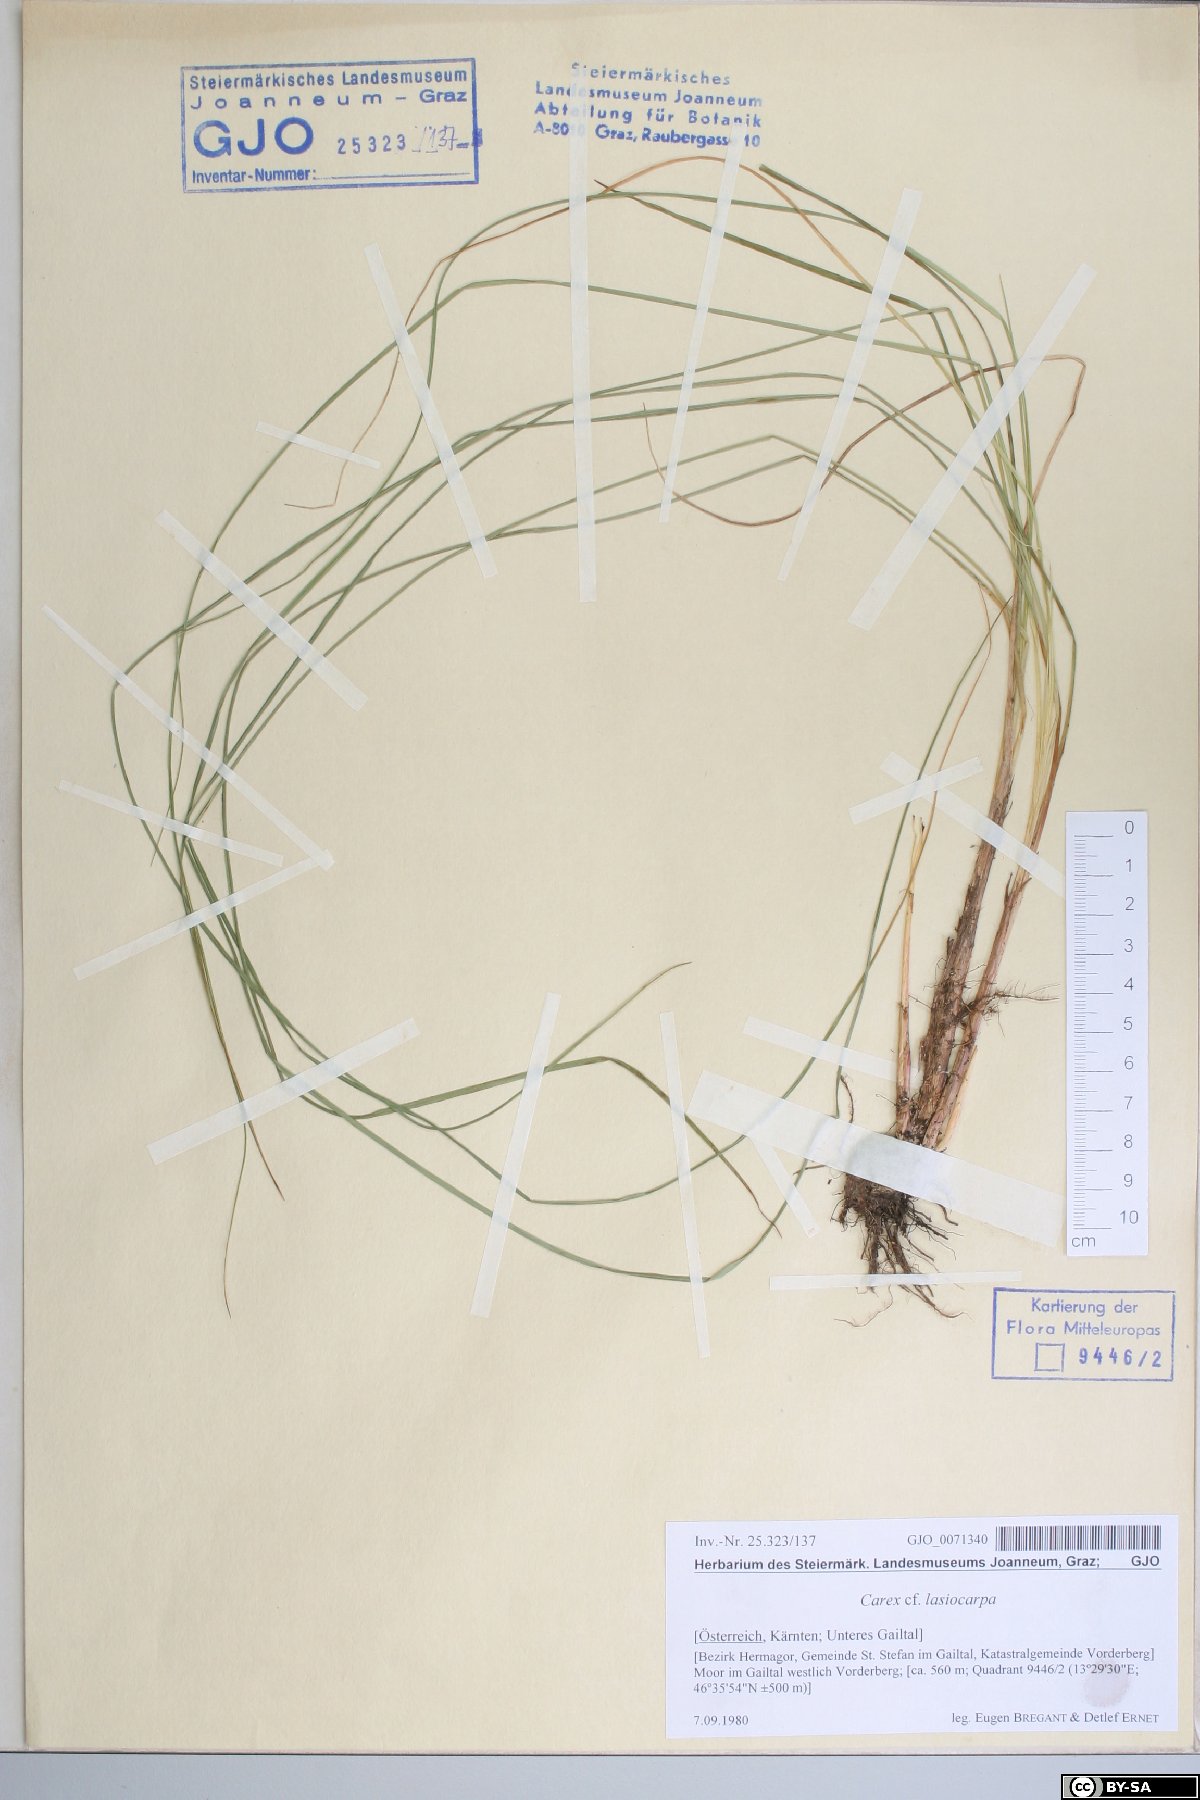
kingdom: Plantae
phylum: Tracheophyta
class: Liliopsida
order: Poales
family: Cyperaceae
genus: Carex
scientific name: Carex lasiocarpa
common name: Slender sedge
